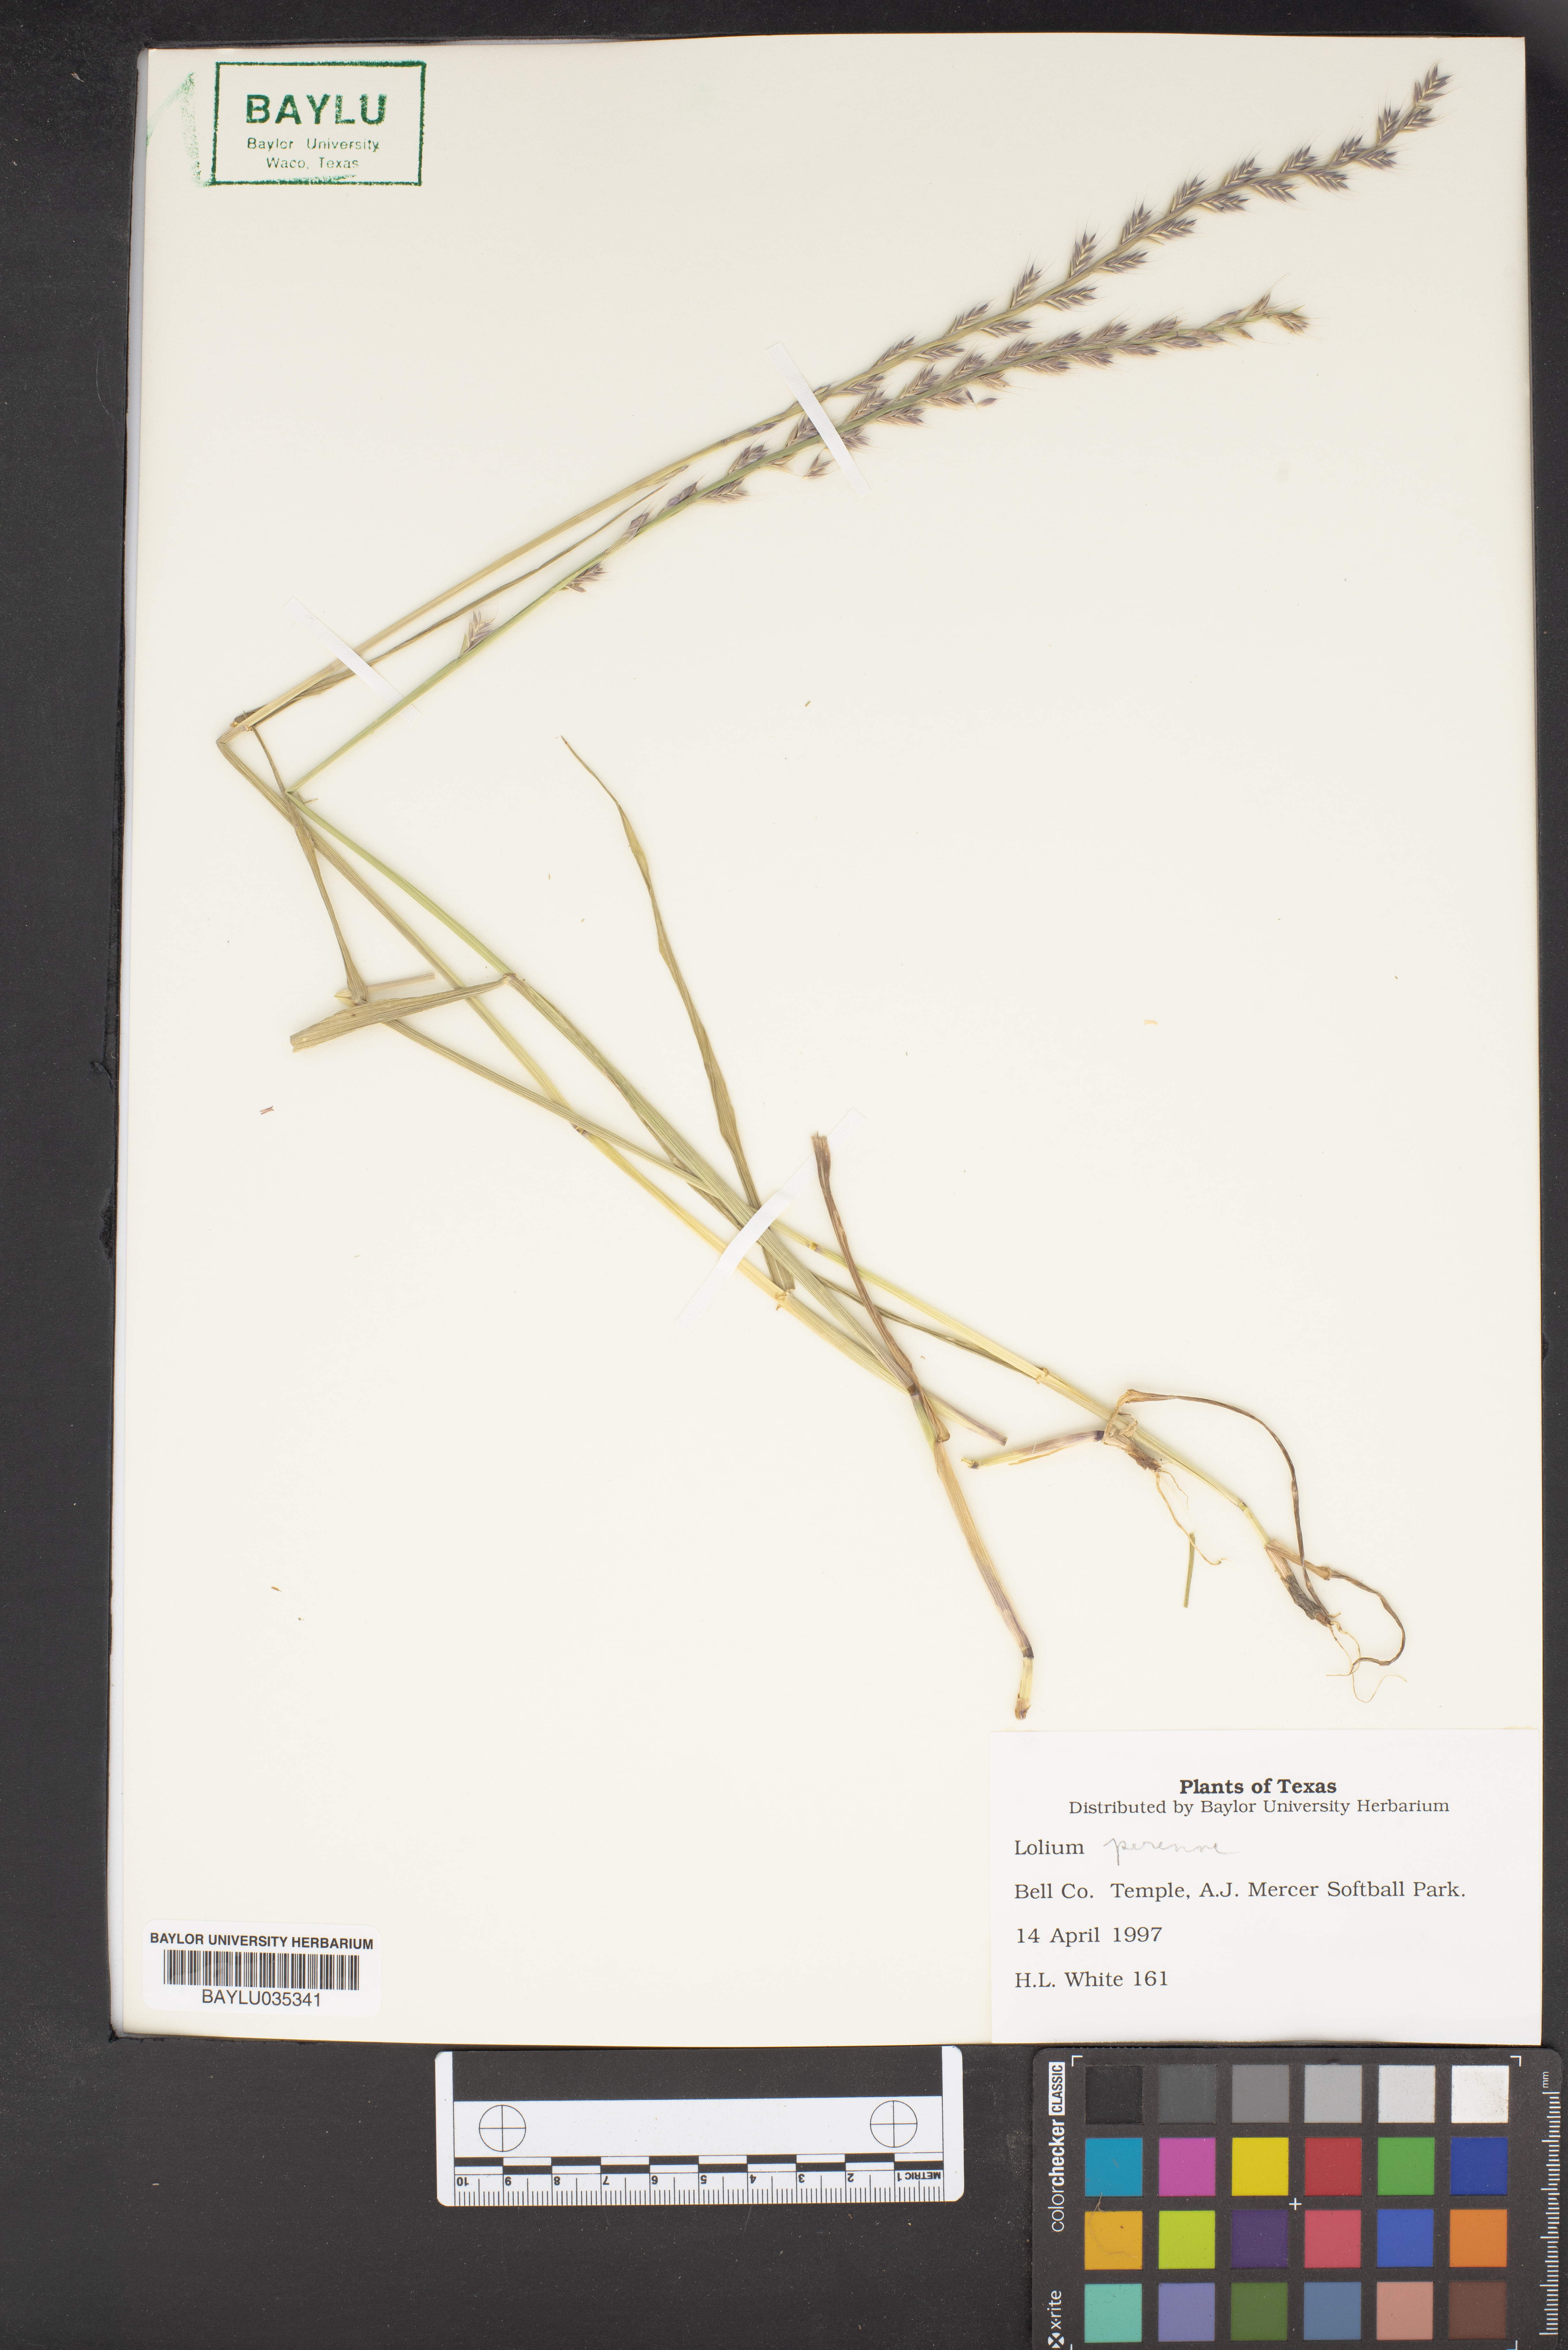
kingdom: Plantae
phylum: Tracheophyta
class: Liliopsida
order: Poales
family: Poaceae
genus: Lolium
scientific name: Lolium perenne
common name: Perennial ryegrass
